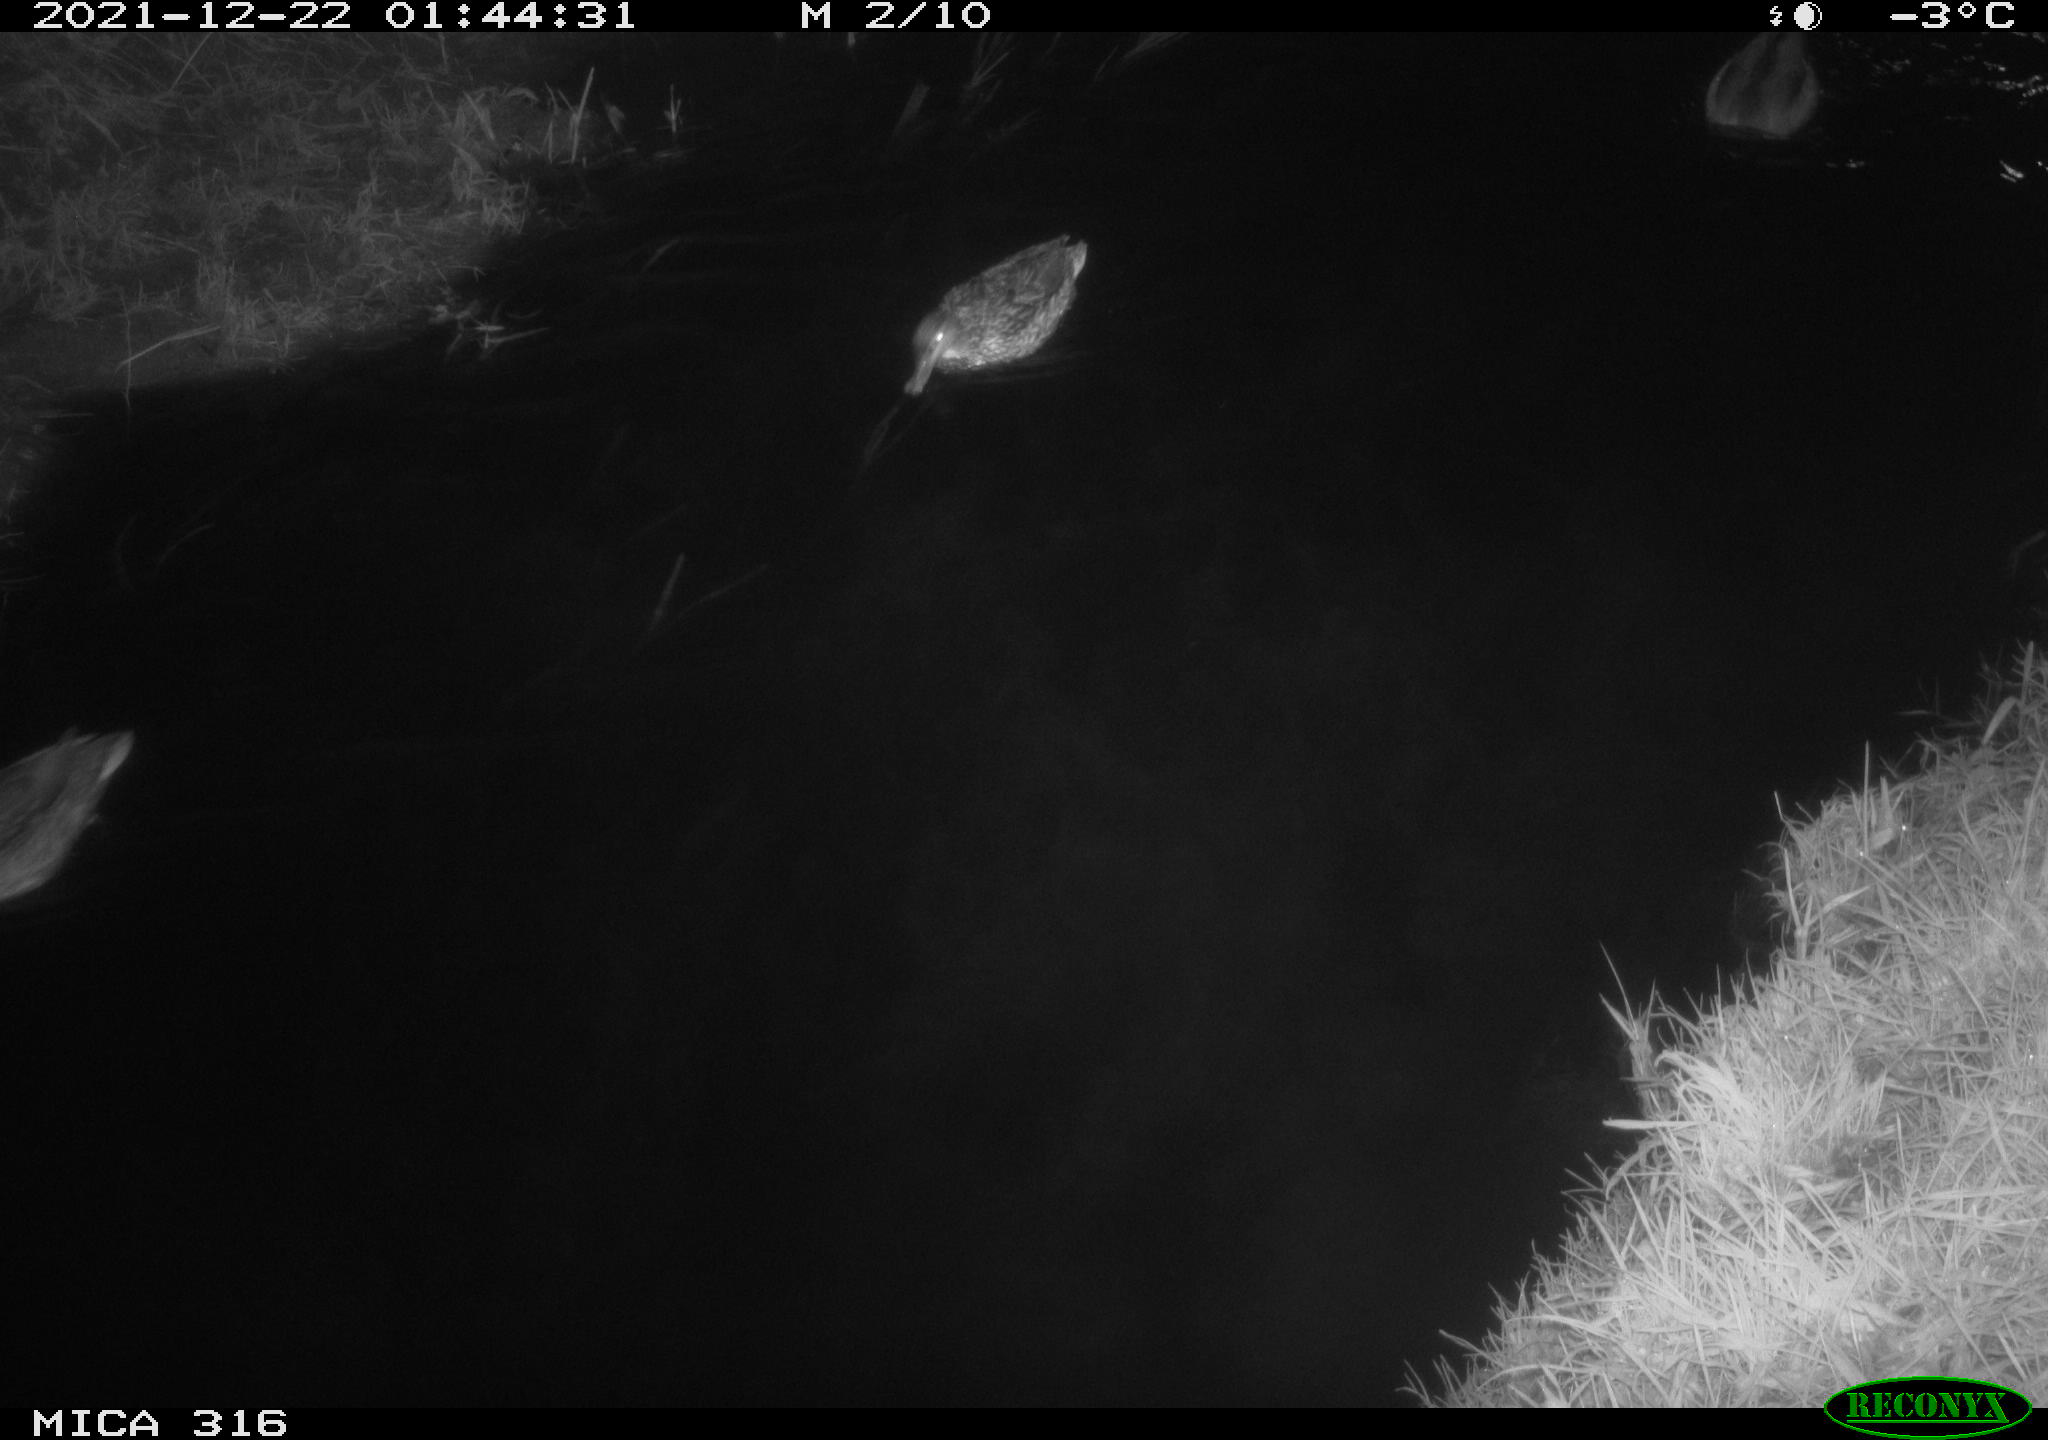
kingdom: Animalia
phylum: Chordata
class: Aves
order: Anseriformes
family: Anatidae
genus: Anas
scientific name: Anas
